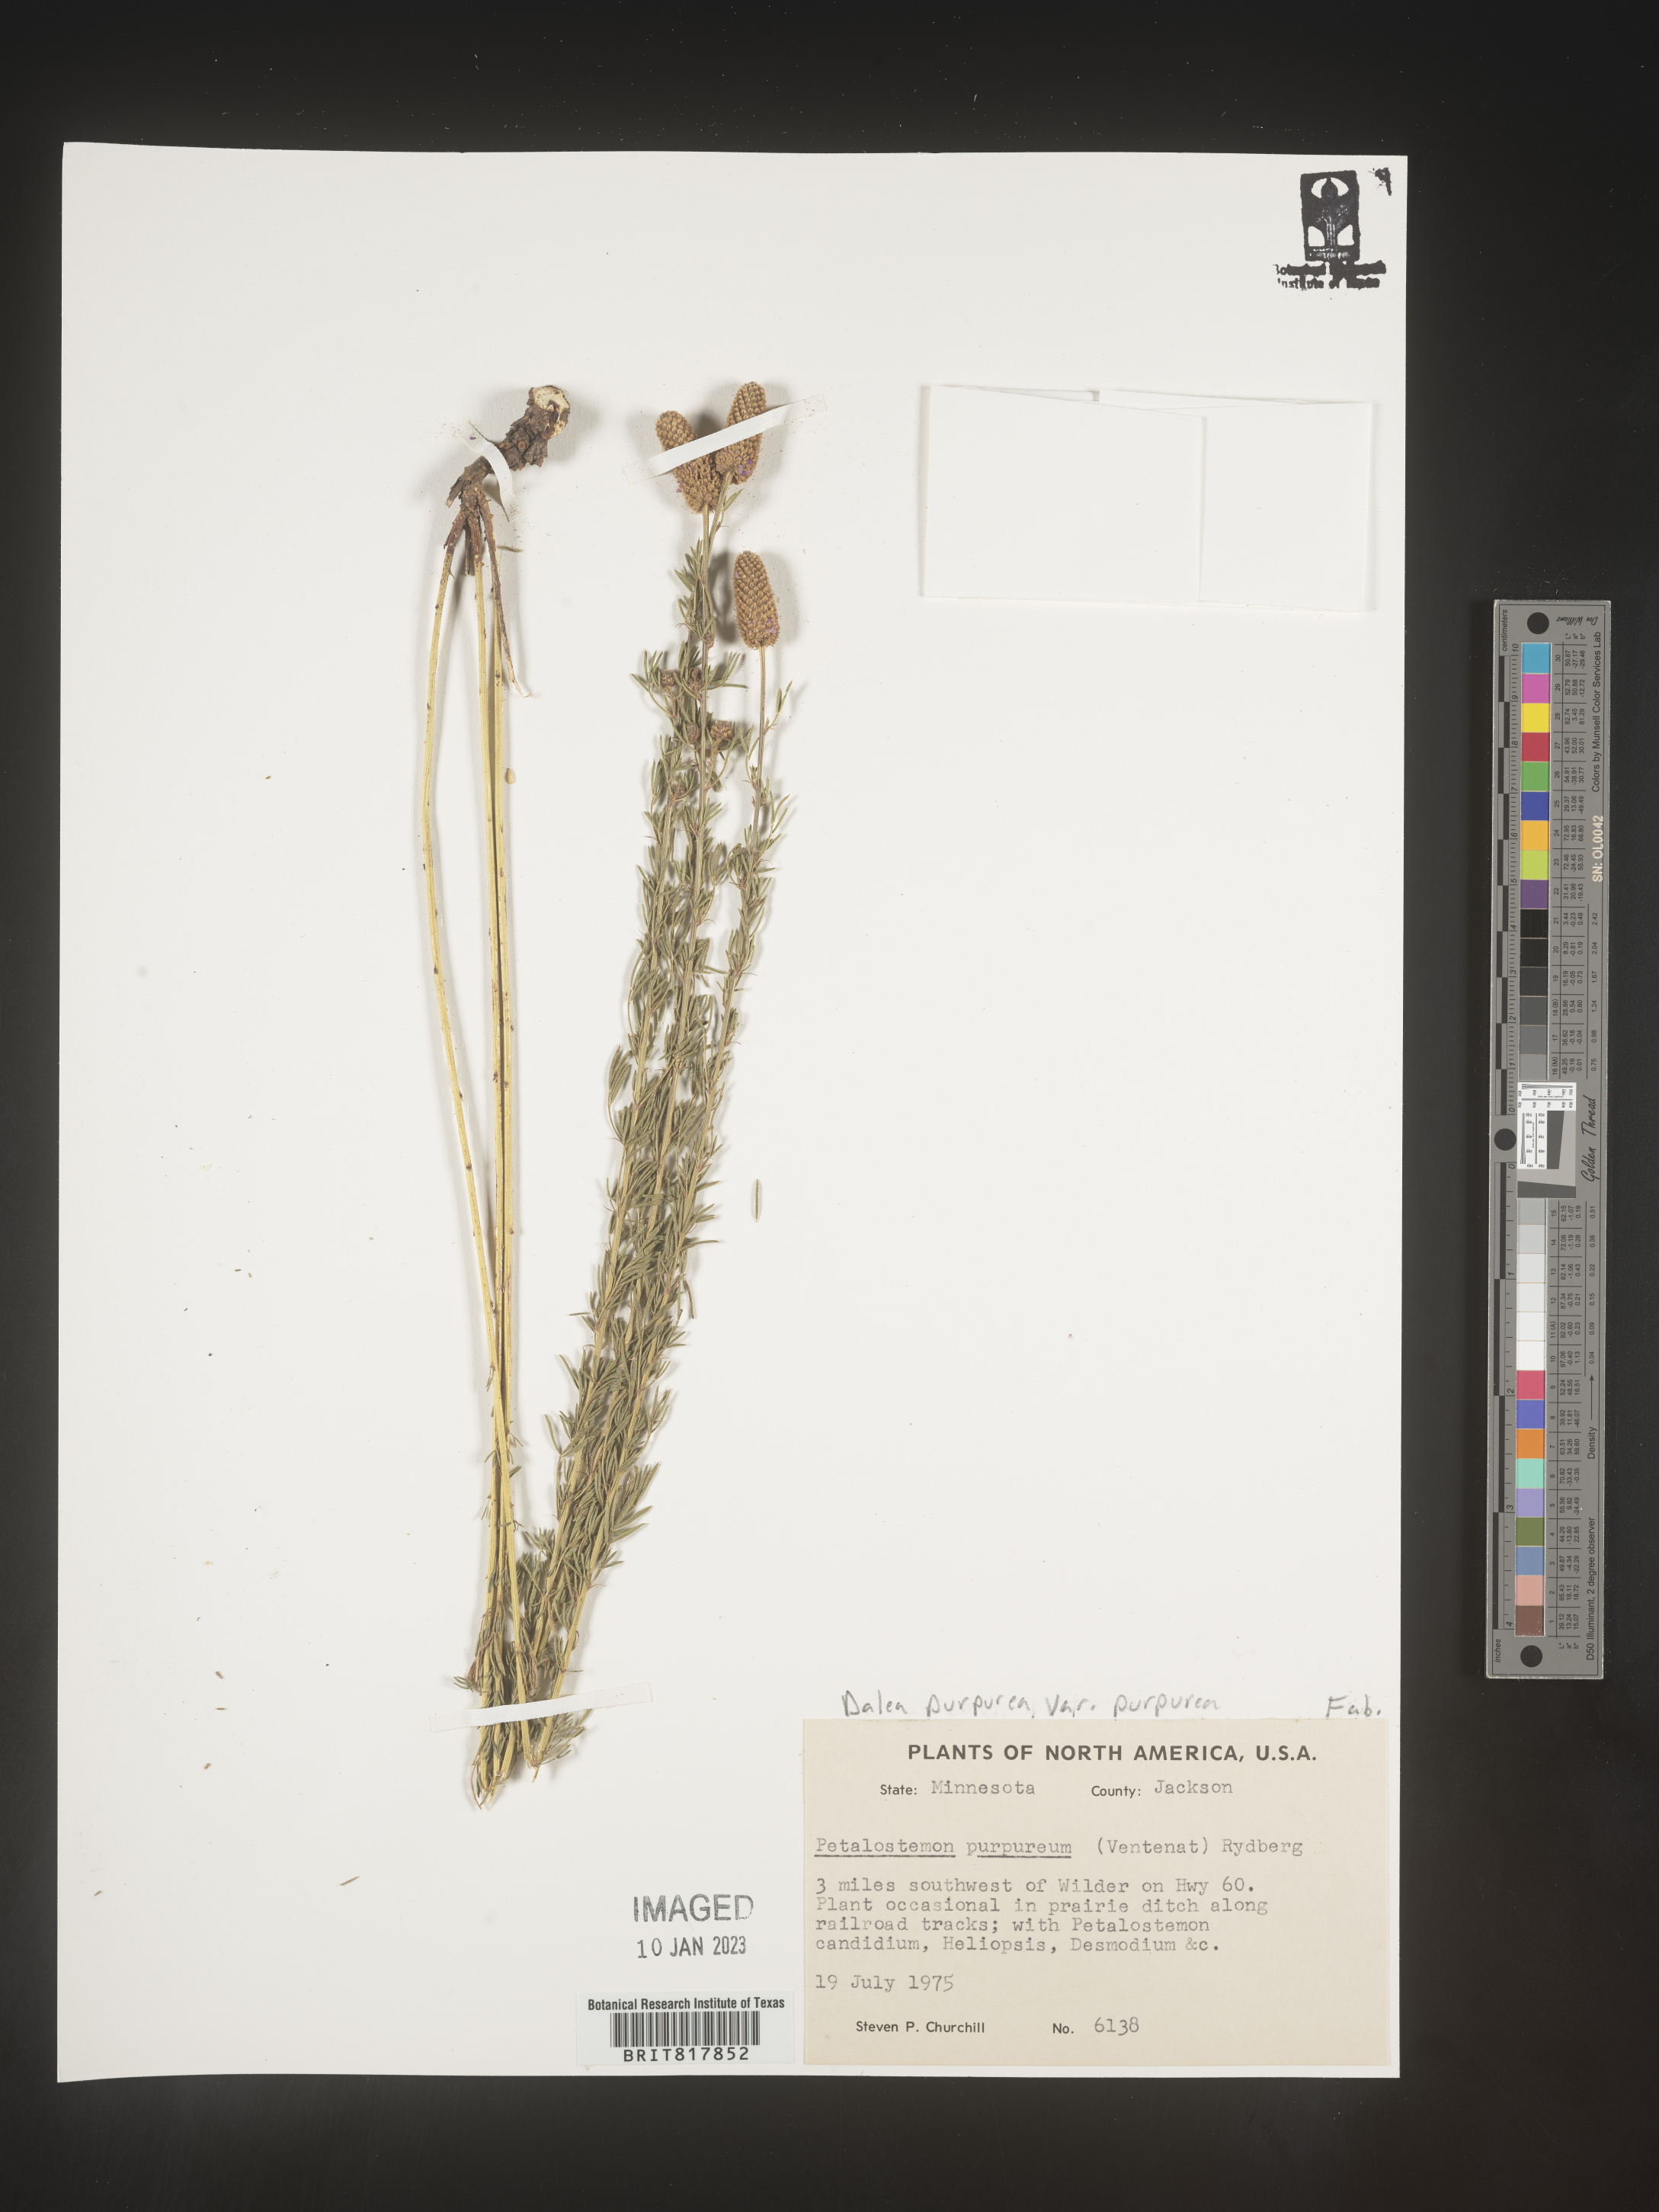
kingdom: Plantae
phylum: Tracheophyta
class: Magnoliopsida
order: Fabales
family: Fabaceae
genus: Dalea
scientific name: Dalea purpurea
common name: Purple prairie-clover
